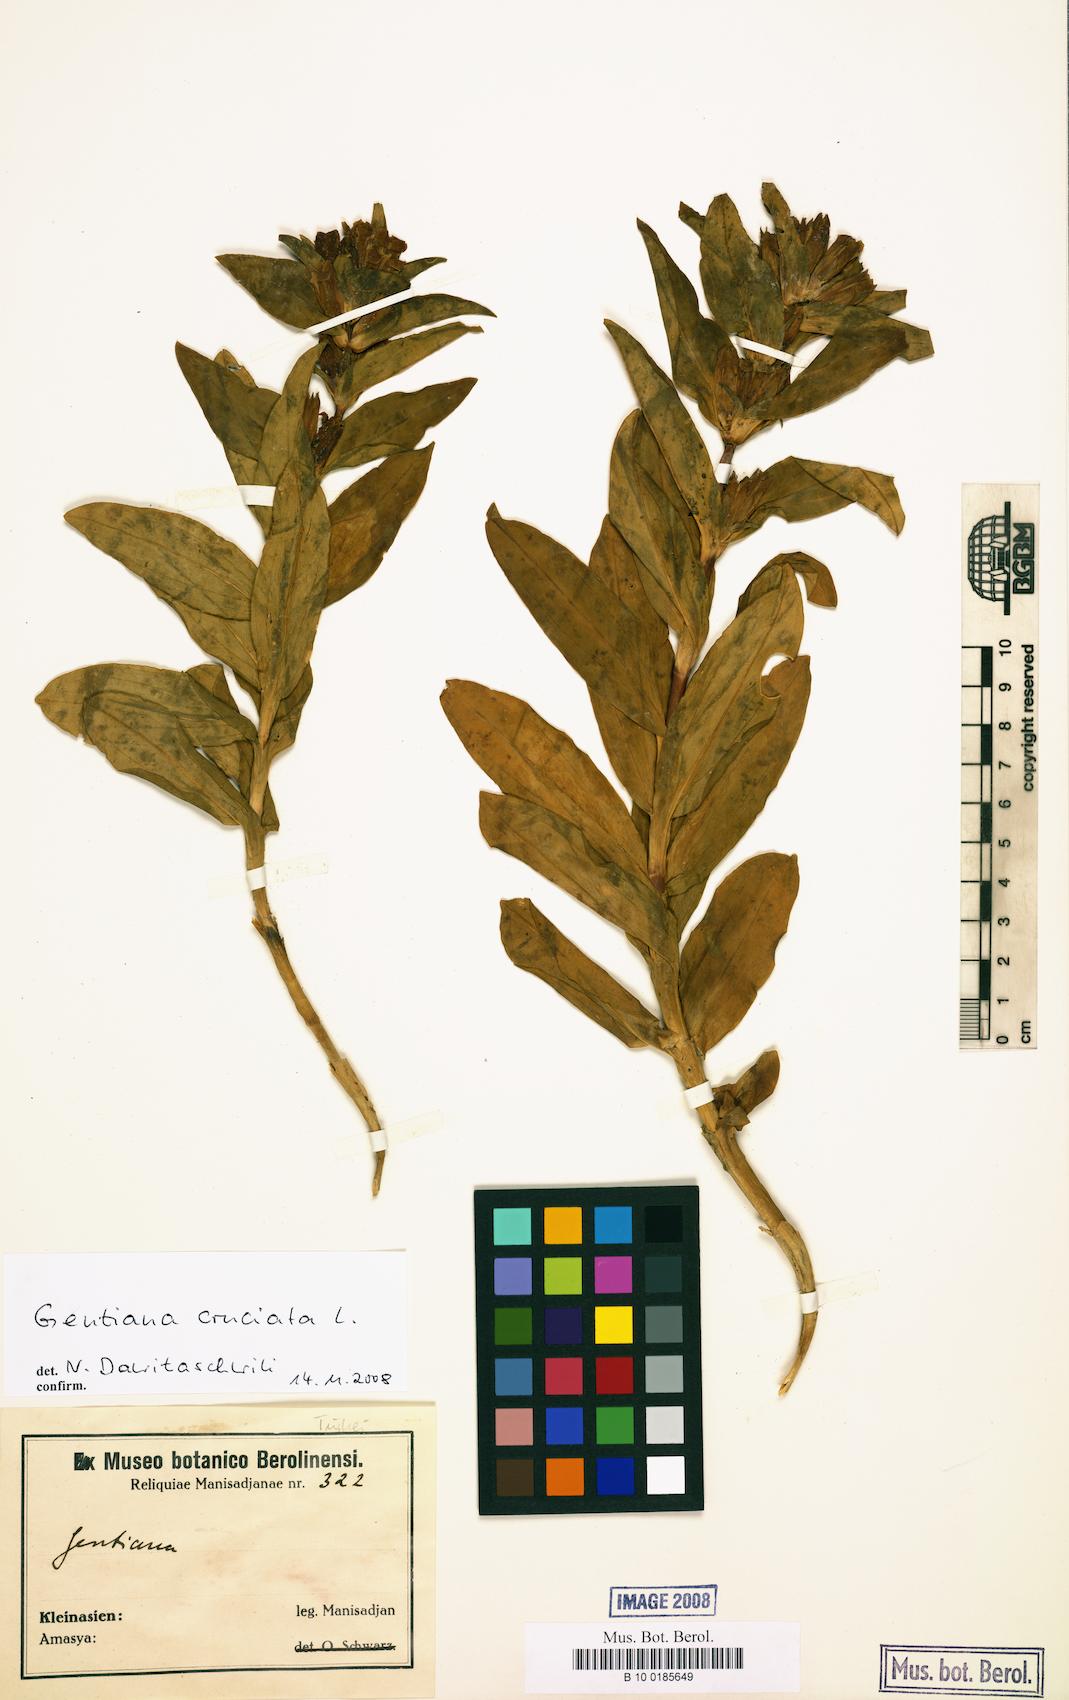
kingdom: Plantae
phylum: Tracheophyta
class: Magnoliopsida
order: Gentianales
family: Gentianaceae
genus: Gentiana
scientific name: Gentiana cruciata
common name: Cross gentian
